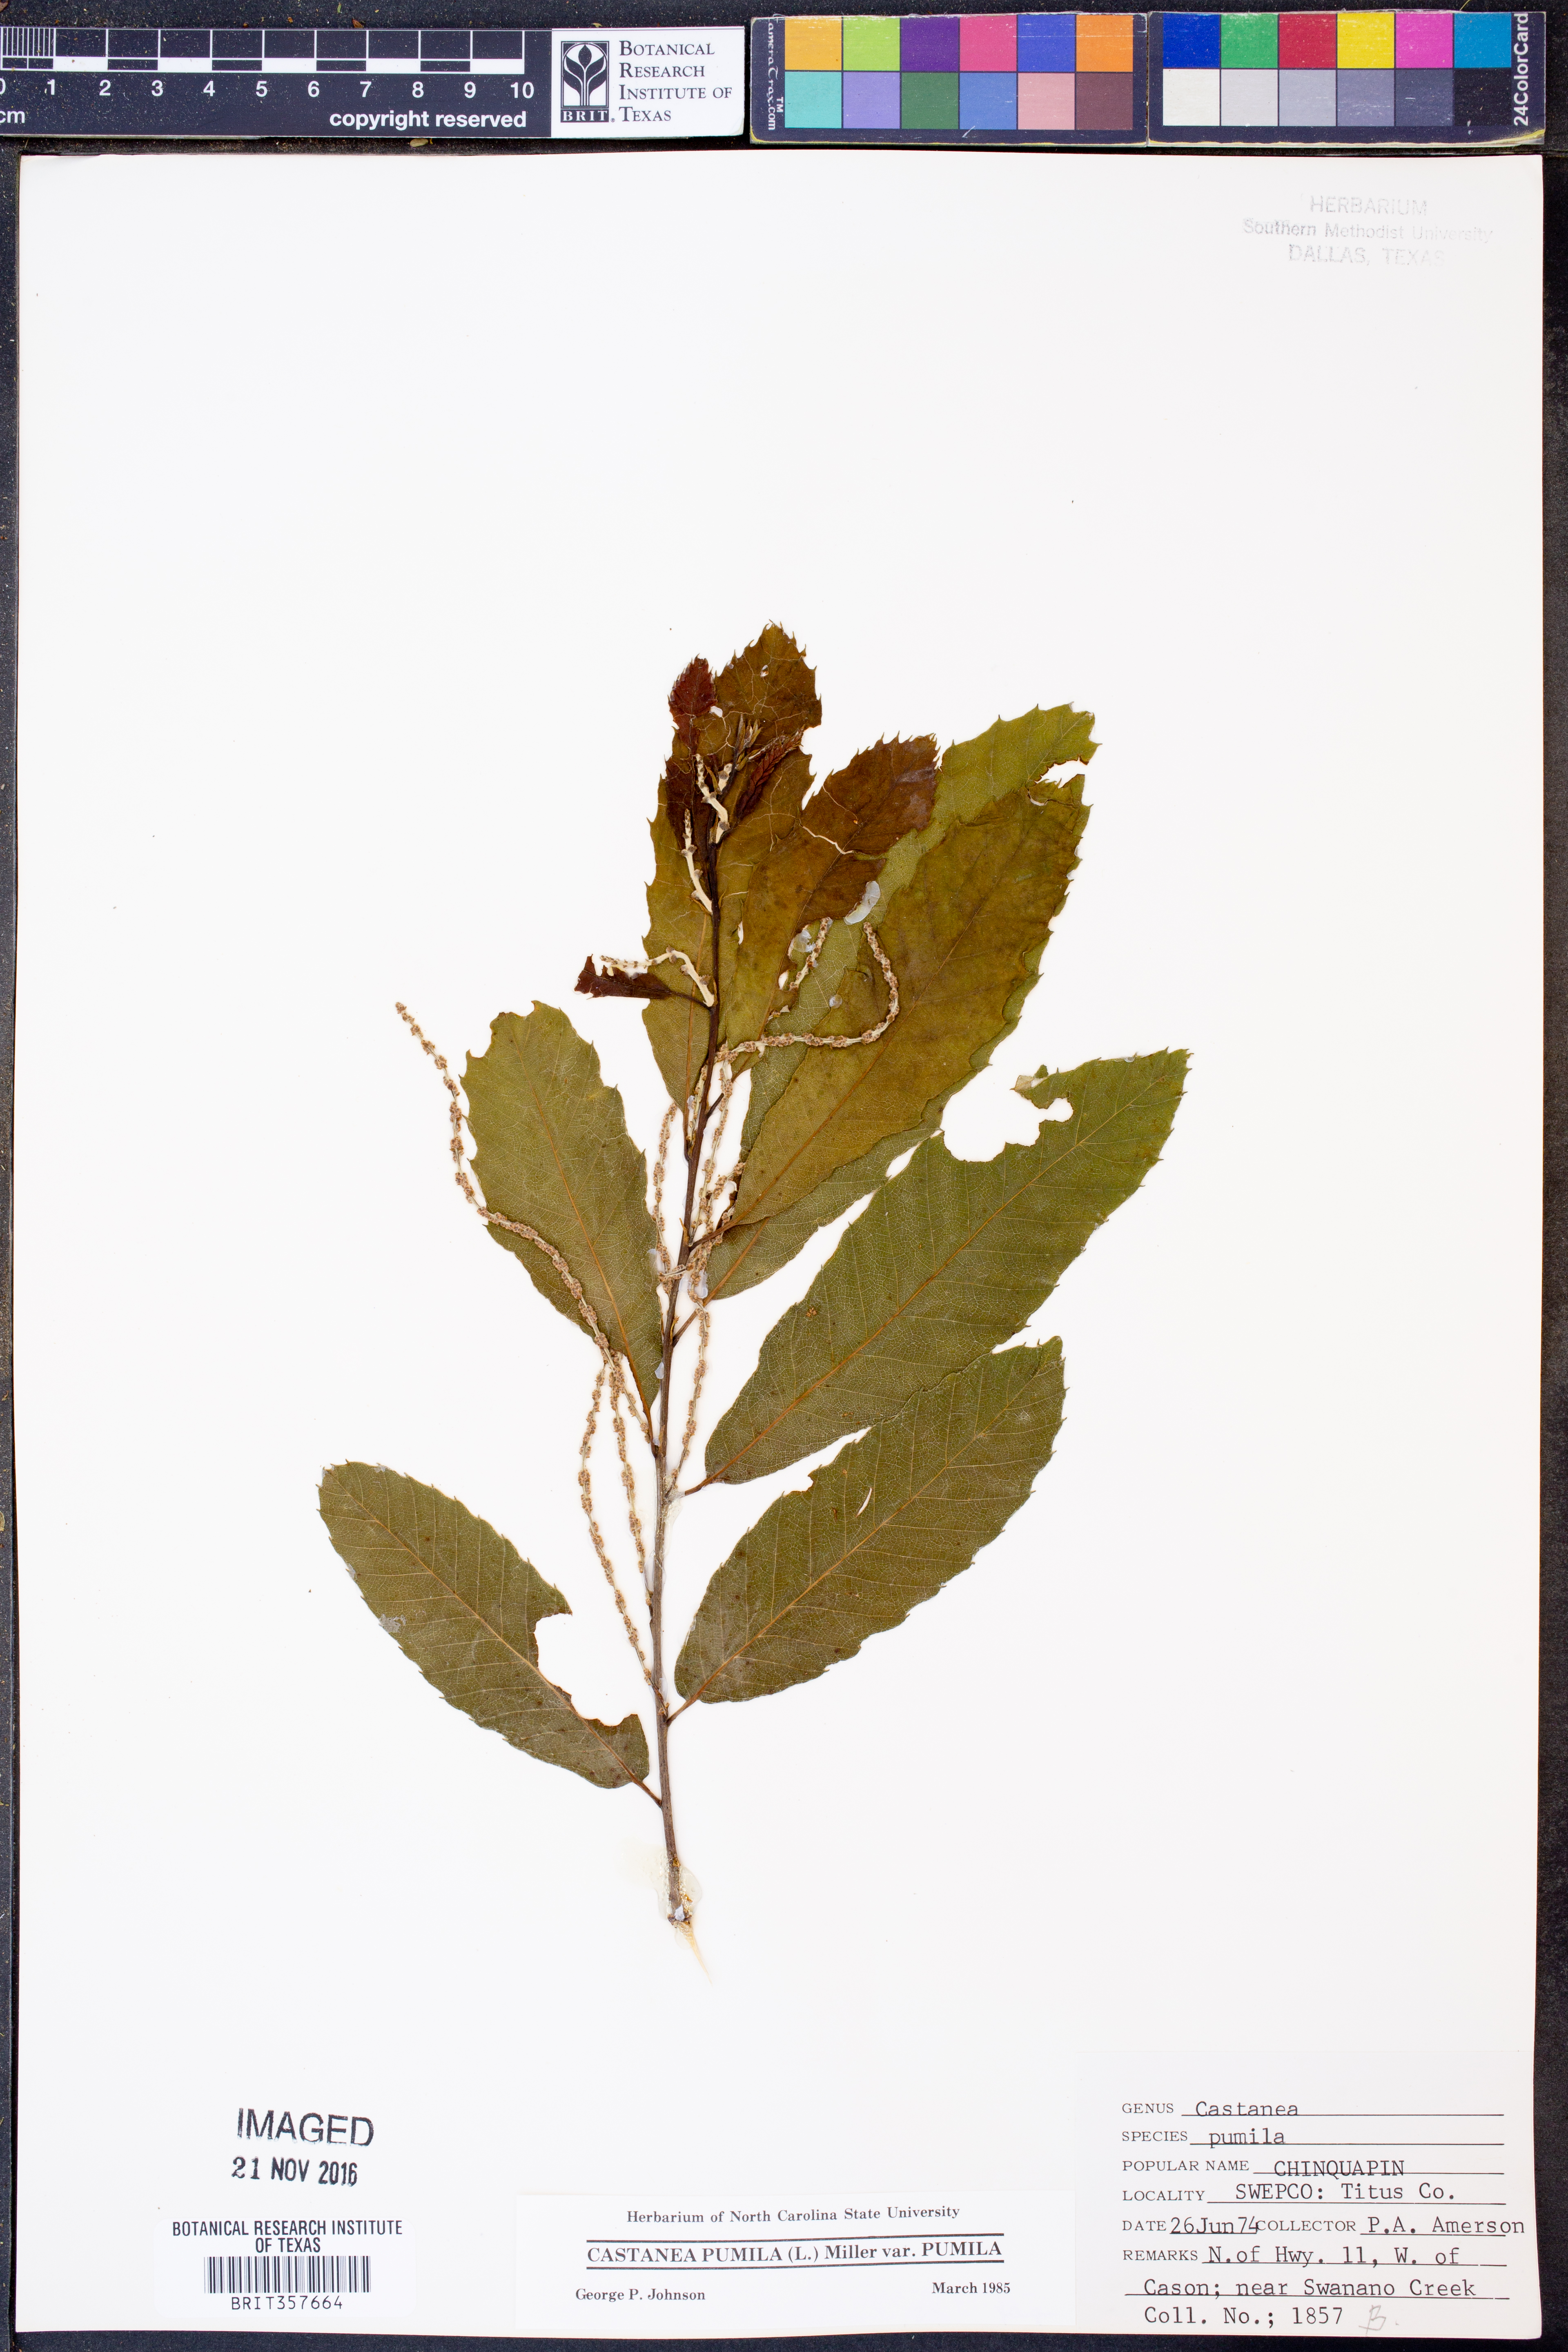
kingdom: Plantae
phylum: Tracheophyta
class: Magnoliopsida
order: Fagales
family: Fagaceae
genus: Castanea
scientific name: Castanea pumila
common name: Chinkapin
